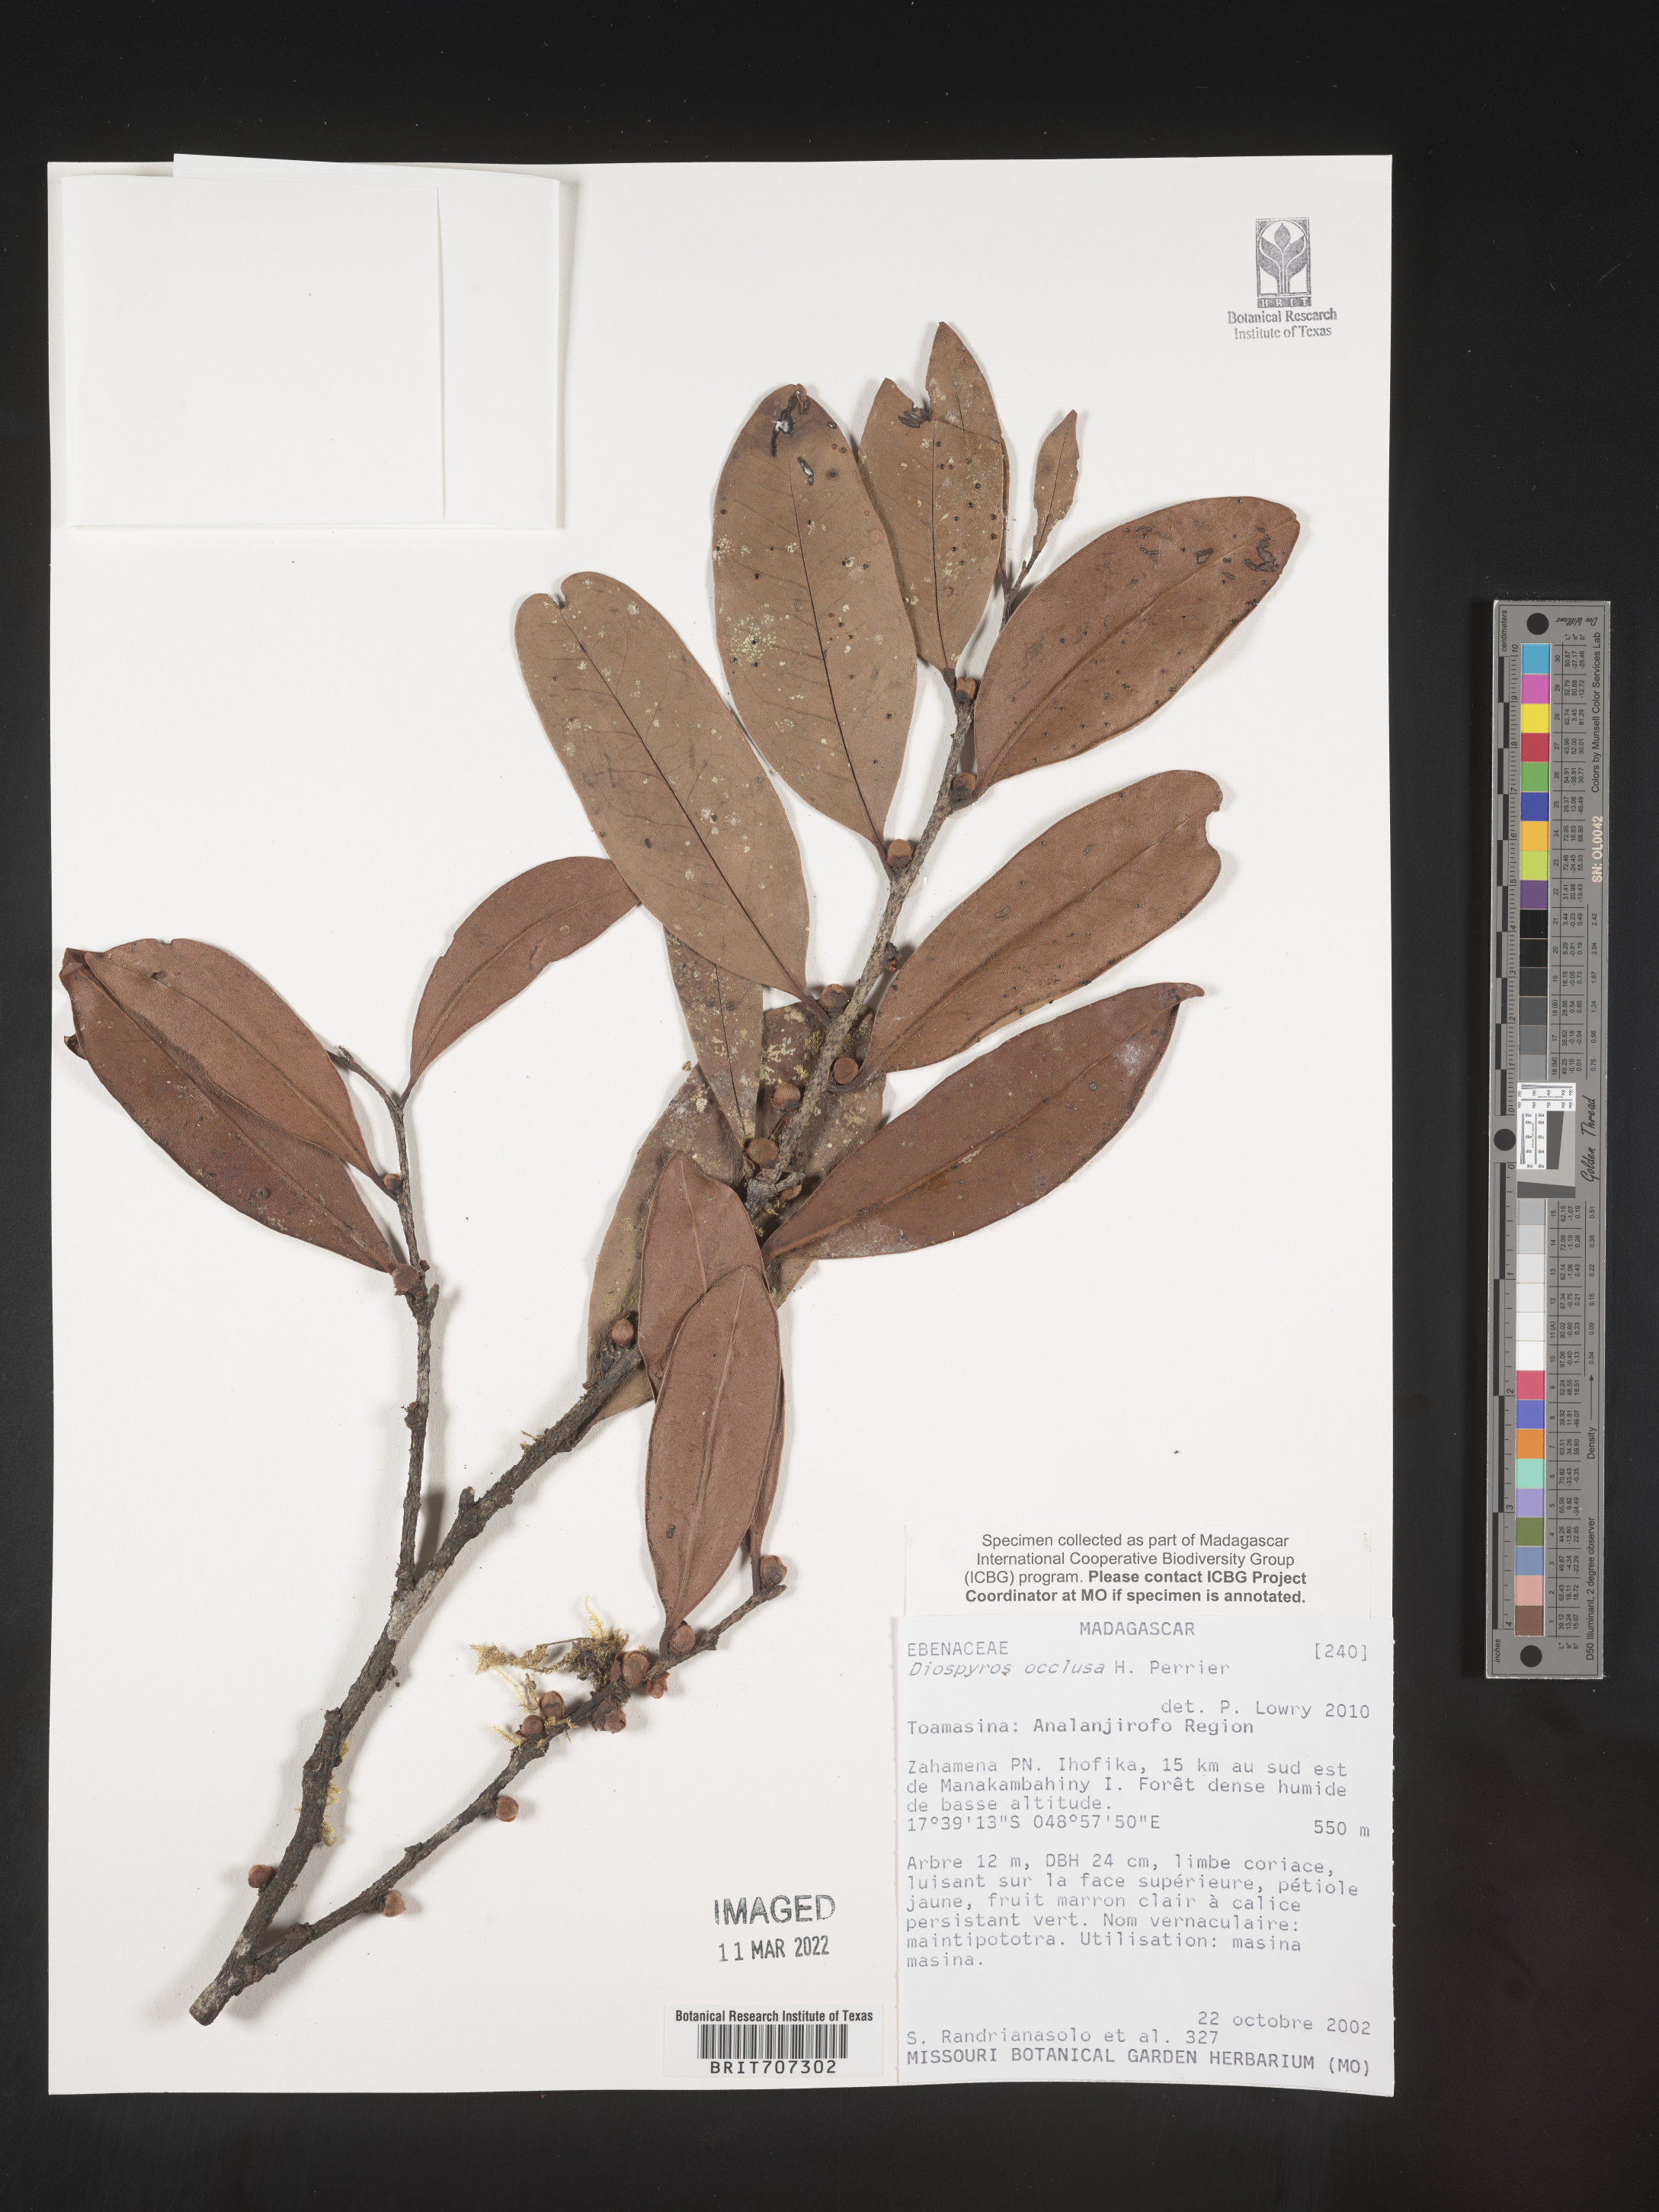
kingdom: Plantae
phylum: Tracheophyta
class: Magnoliopsida
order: Ericales
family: Ebenaceae
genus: Diospyros
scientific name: Diospyros
